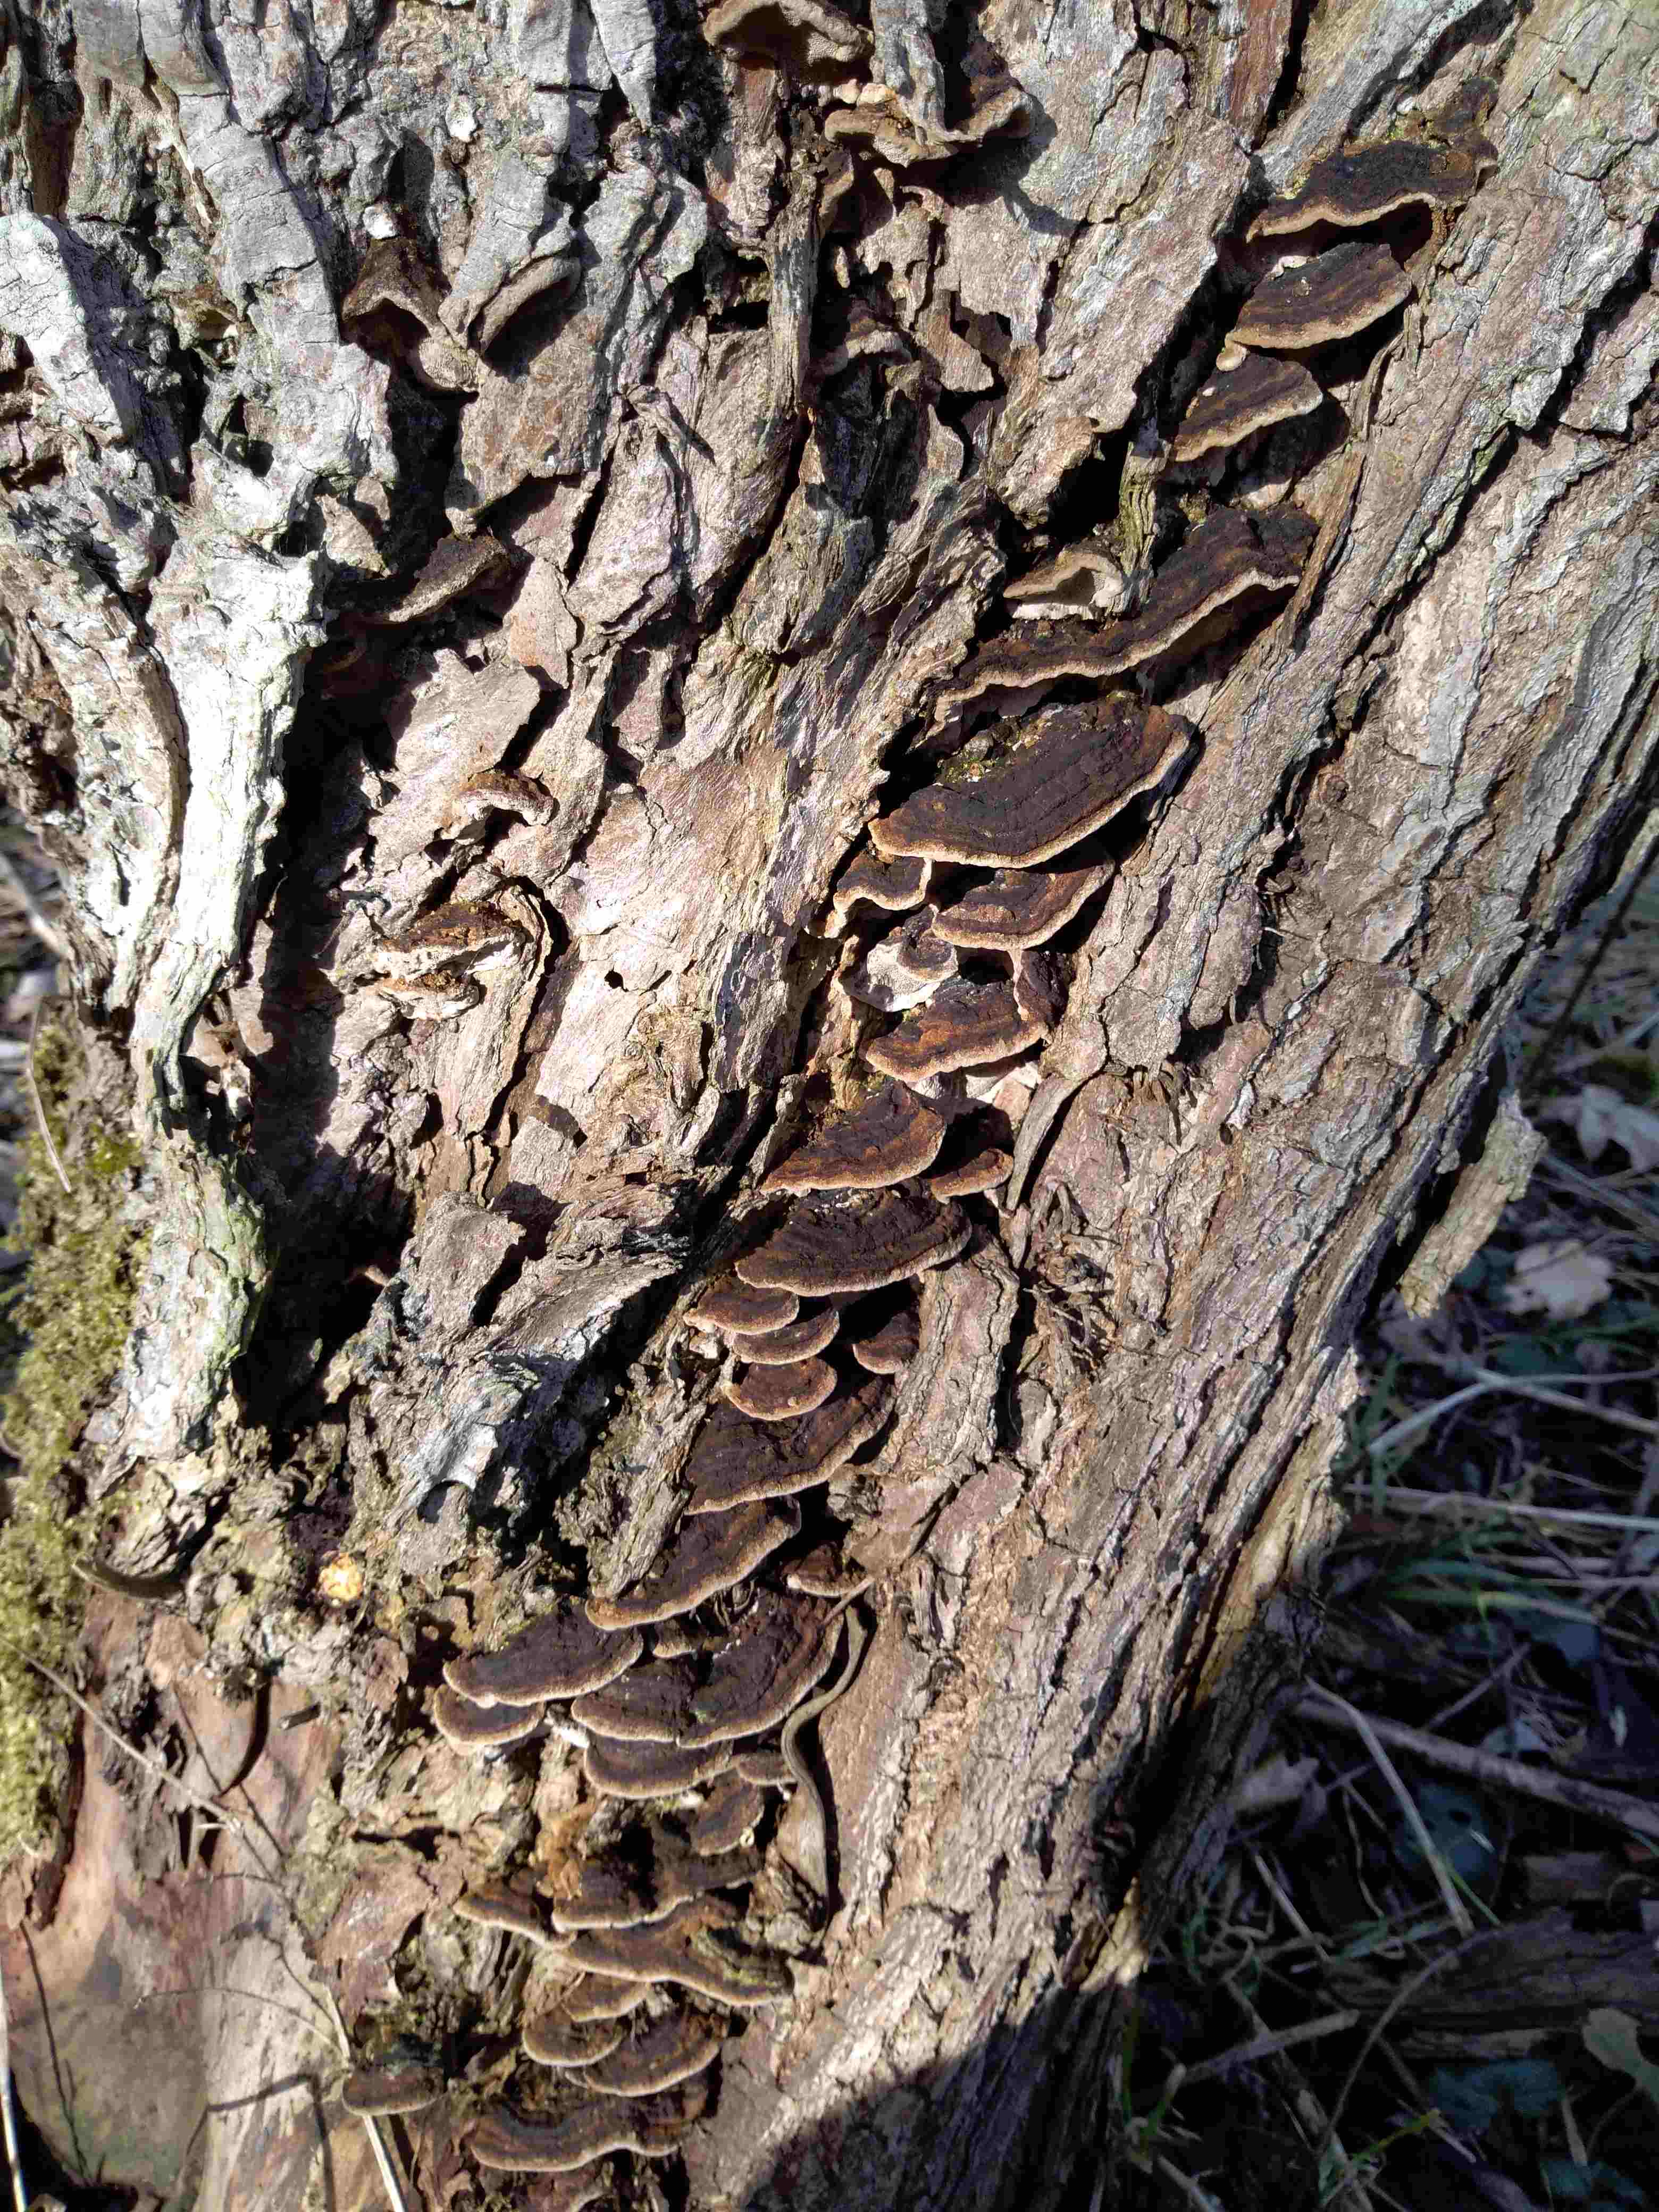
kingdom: Fungi
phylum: Basidiomycota
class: Agaricomycetes
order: Hymenochaetales
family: Hymenochaetaceae
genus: Phellinopsis
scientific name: Phellinopsis conchata
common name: pile-ildporesvamp
